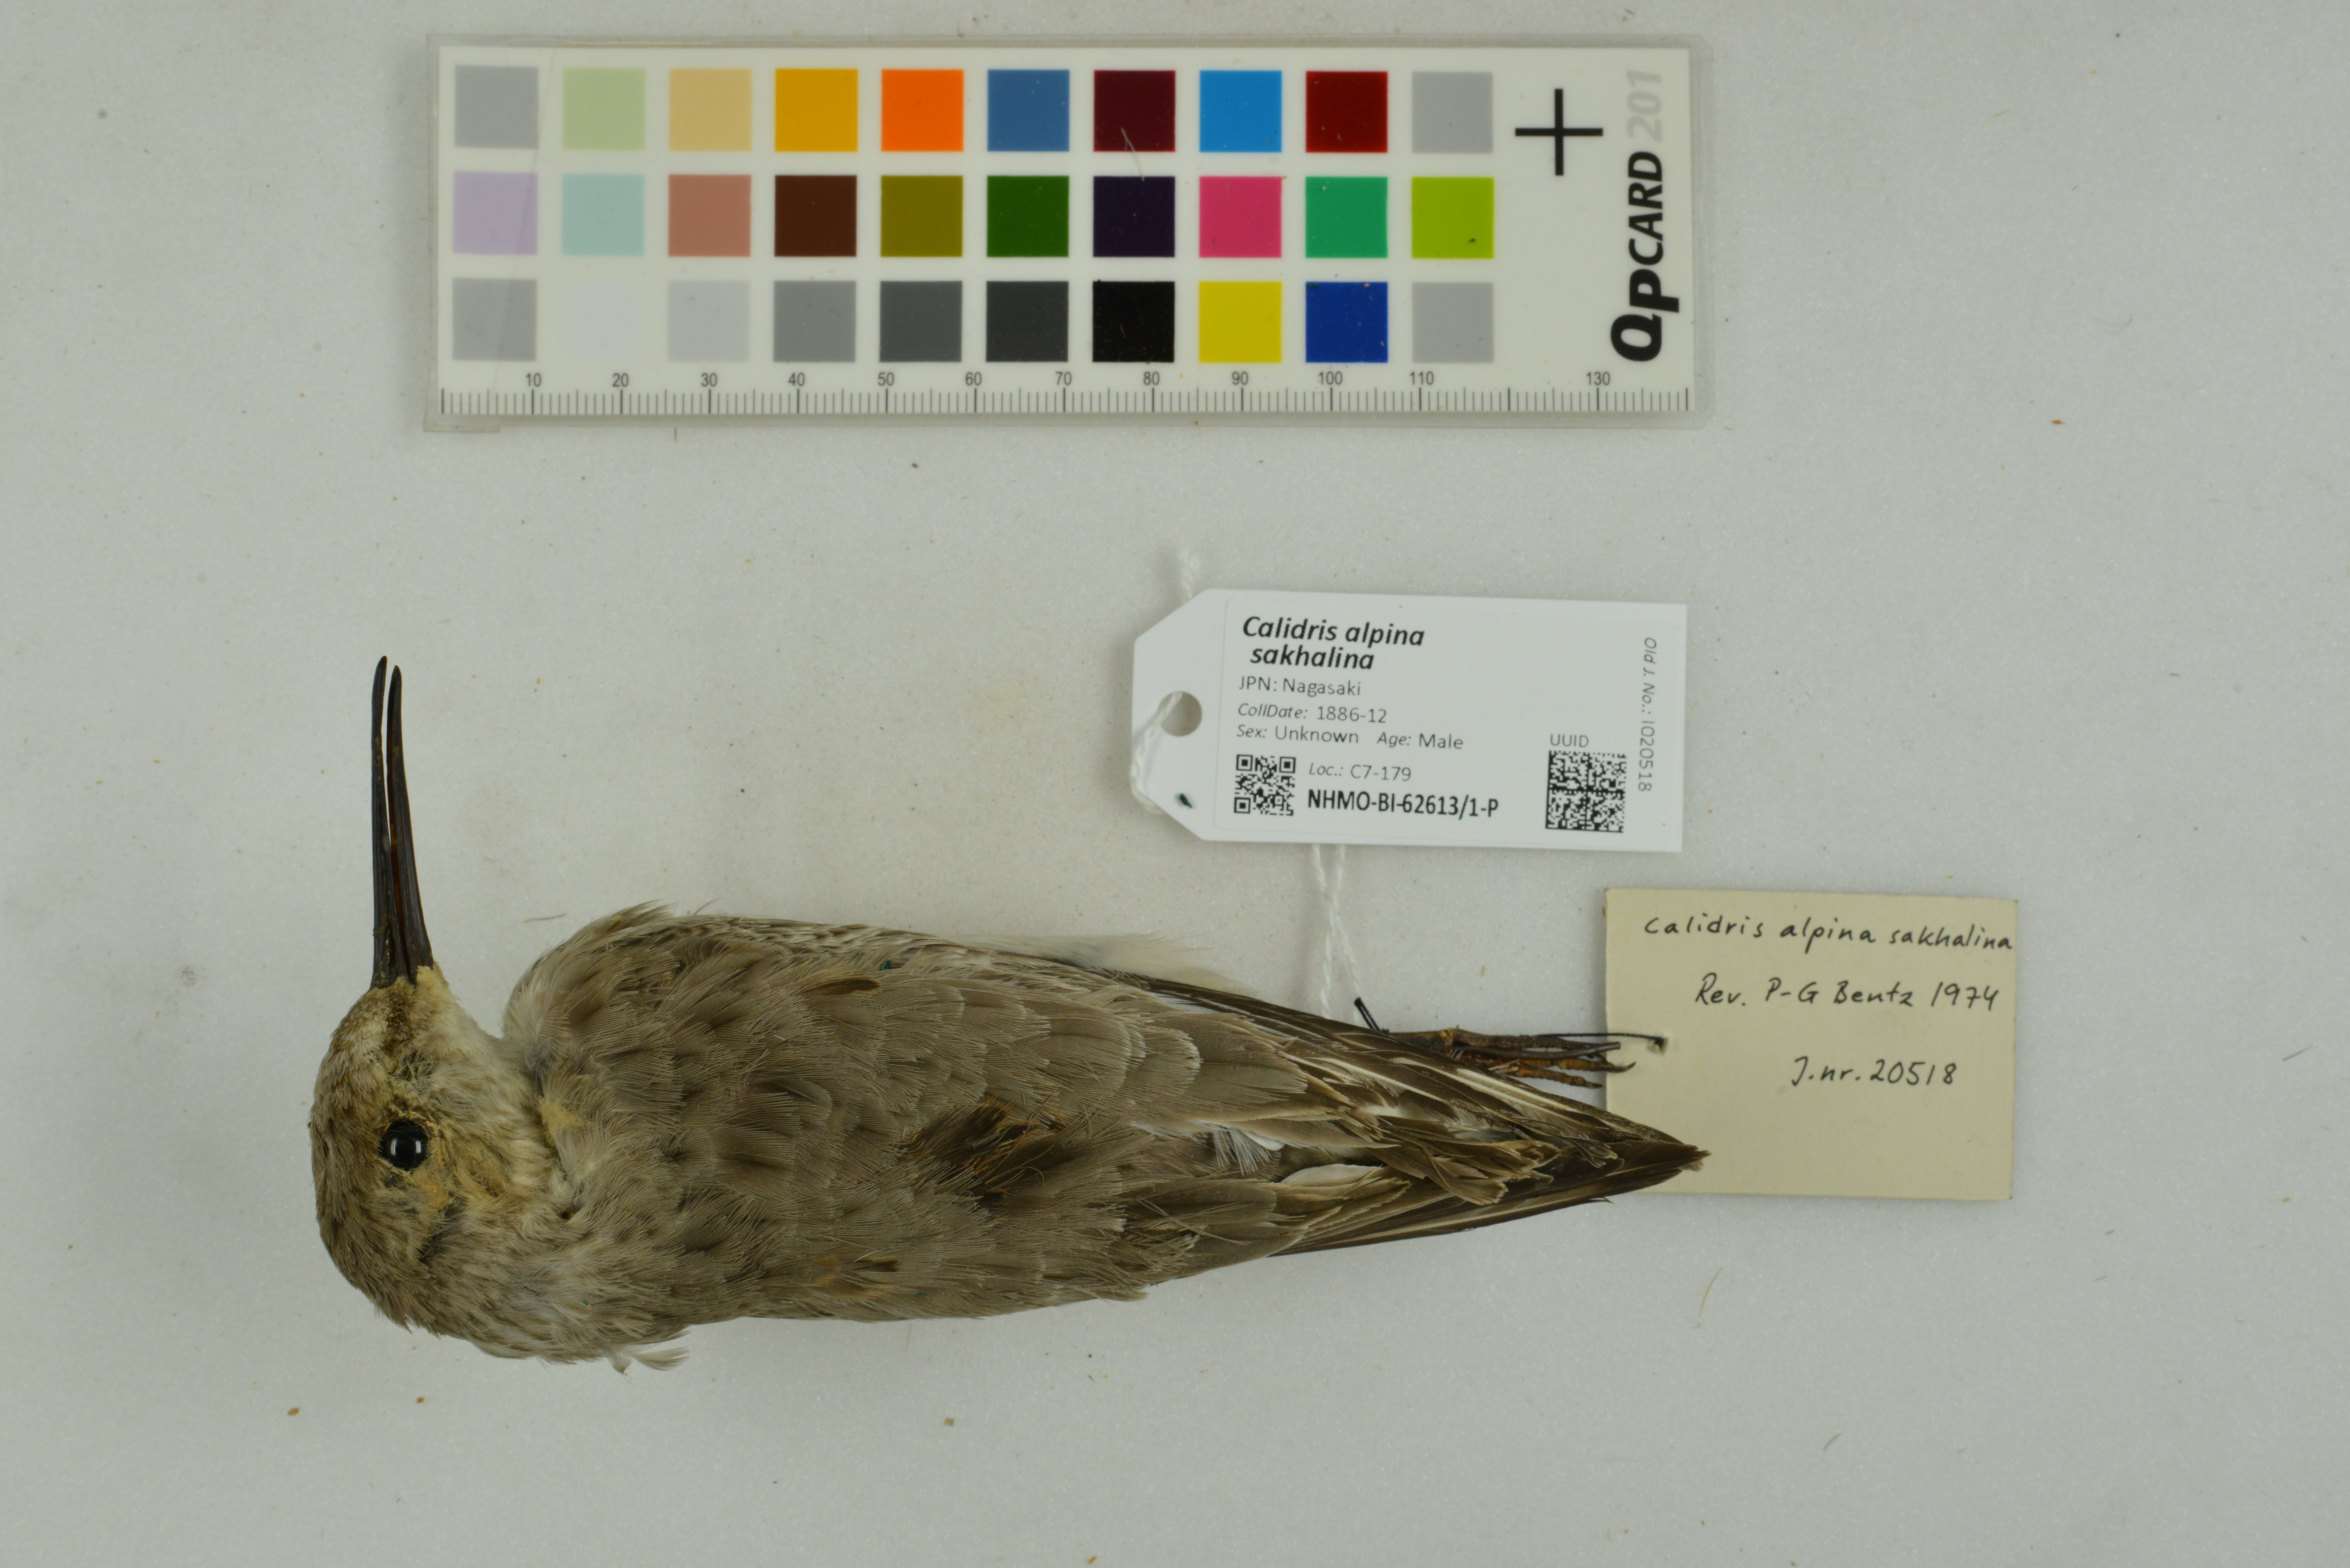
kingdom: Animalia
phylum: Chordata
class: Aves
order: Charadriiformes
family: Scolopacidae
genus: Calidris
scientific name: Calidris alpina
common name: Dunlin
